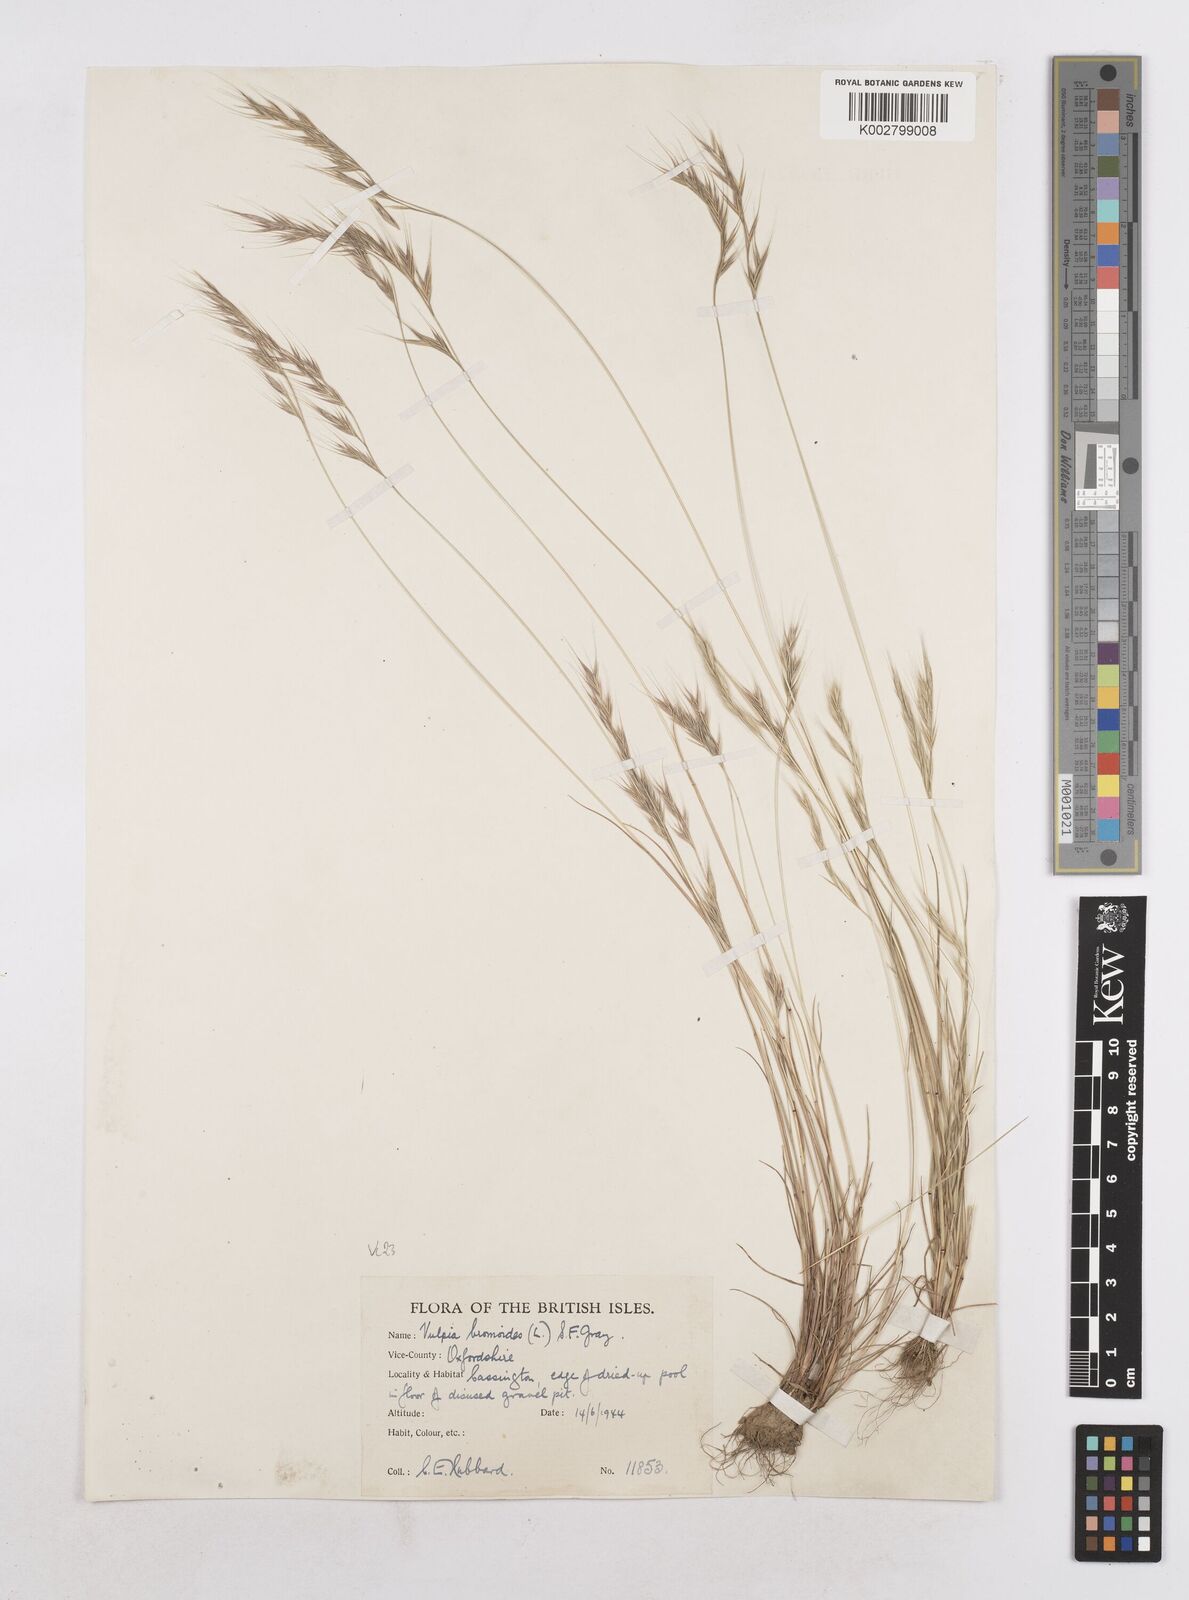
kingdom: Plantae
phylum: Tracheophyta
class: Liliopsida
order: Poales
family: Poaceae
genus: Festuca
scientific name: Festuca bromoides
